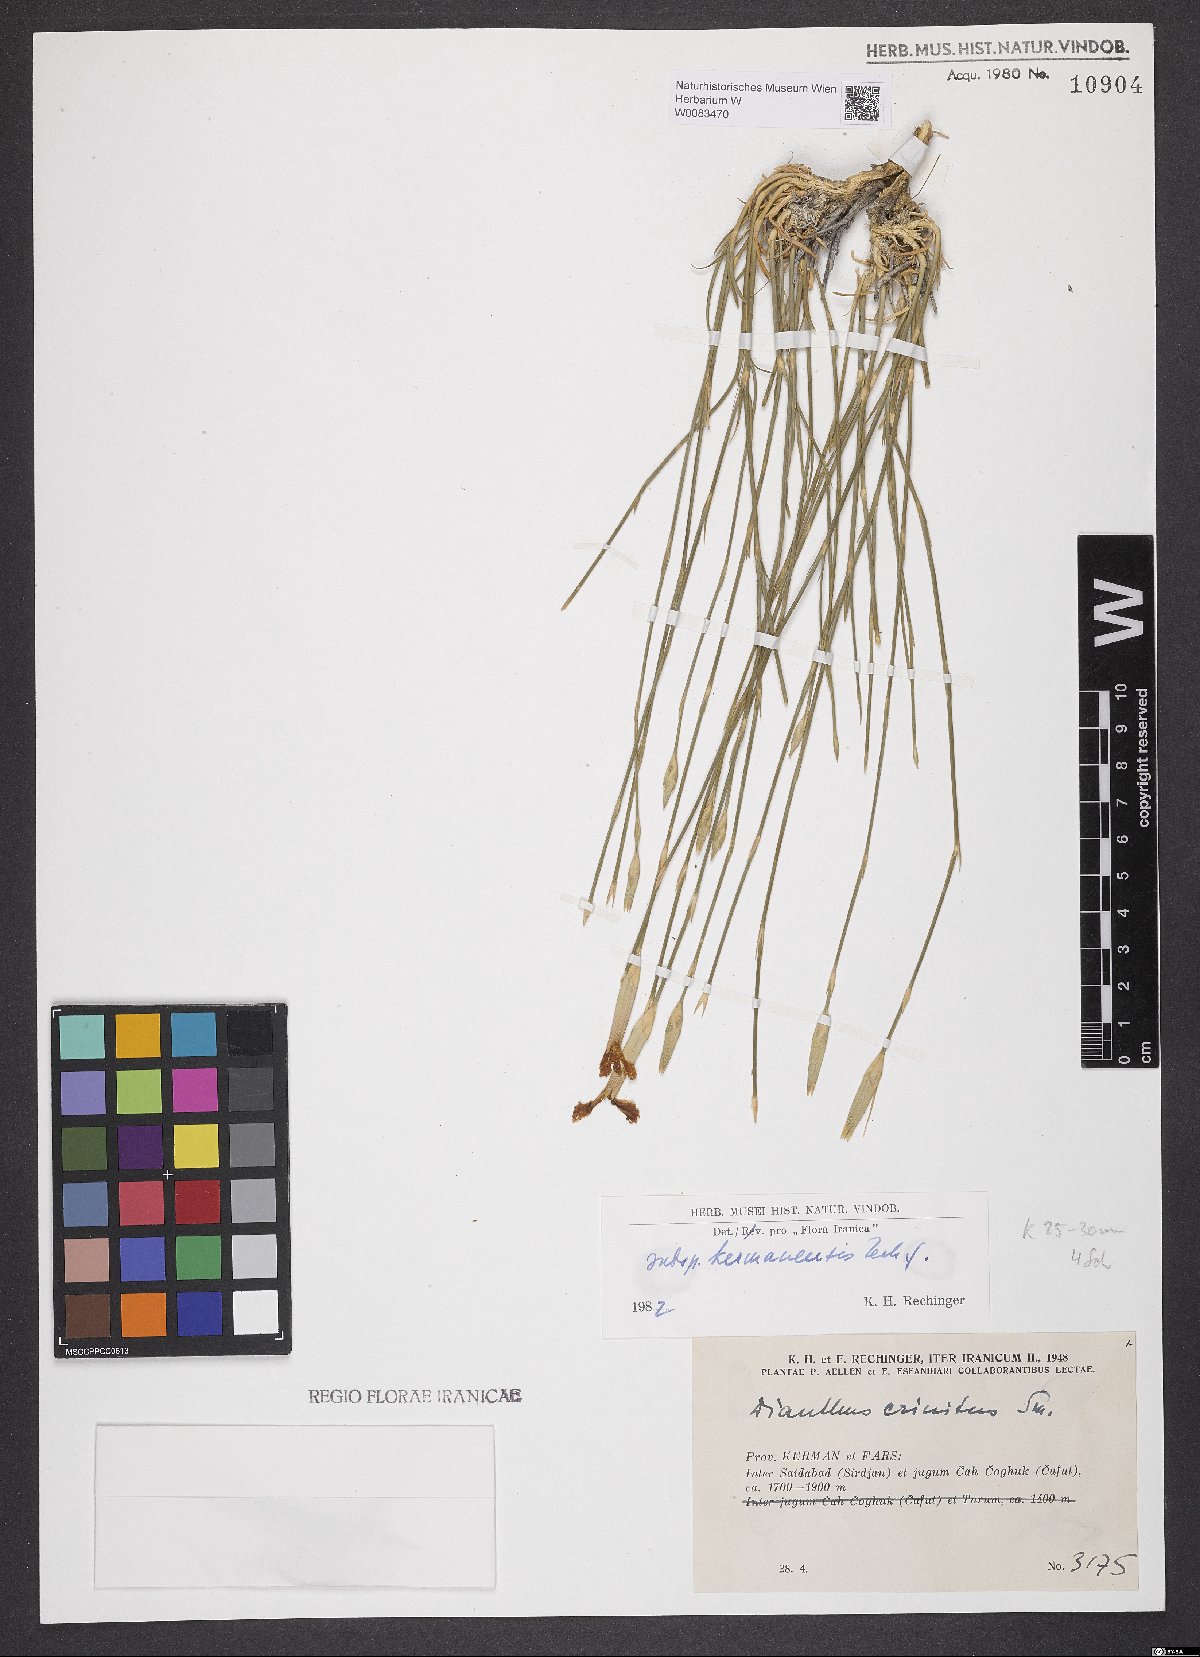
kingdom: Plantae
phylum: Tracheophyta
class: Magnoliopsida
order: Caryophyllales
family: Caryophyllaceae
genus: Dianthus
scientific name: Dianthus crinitus
